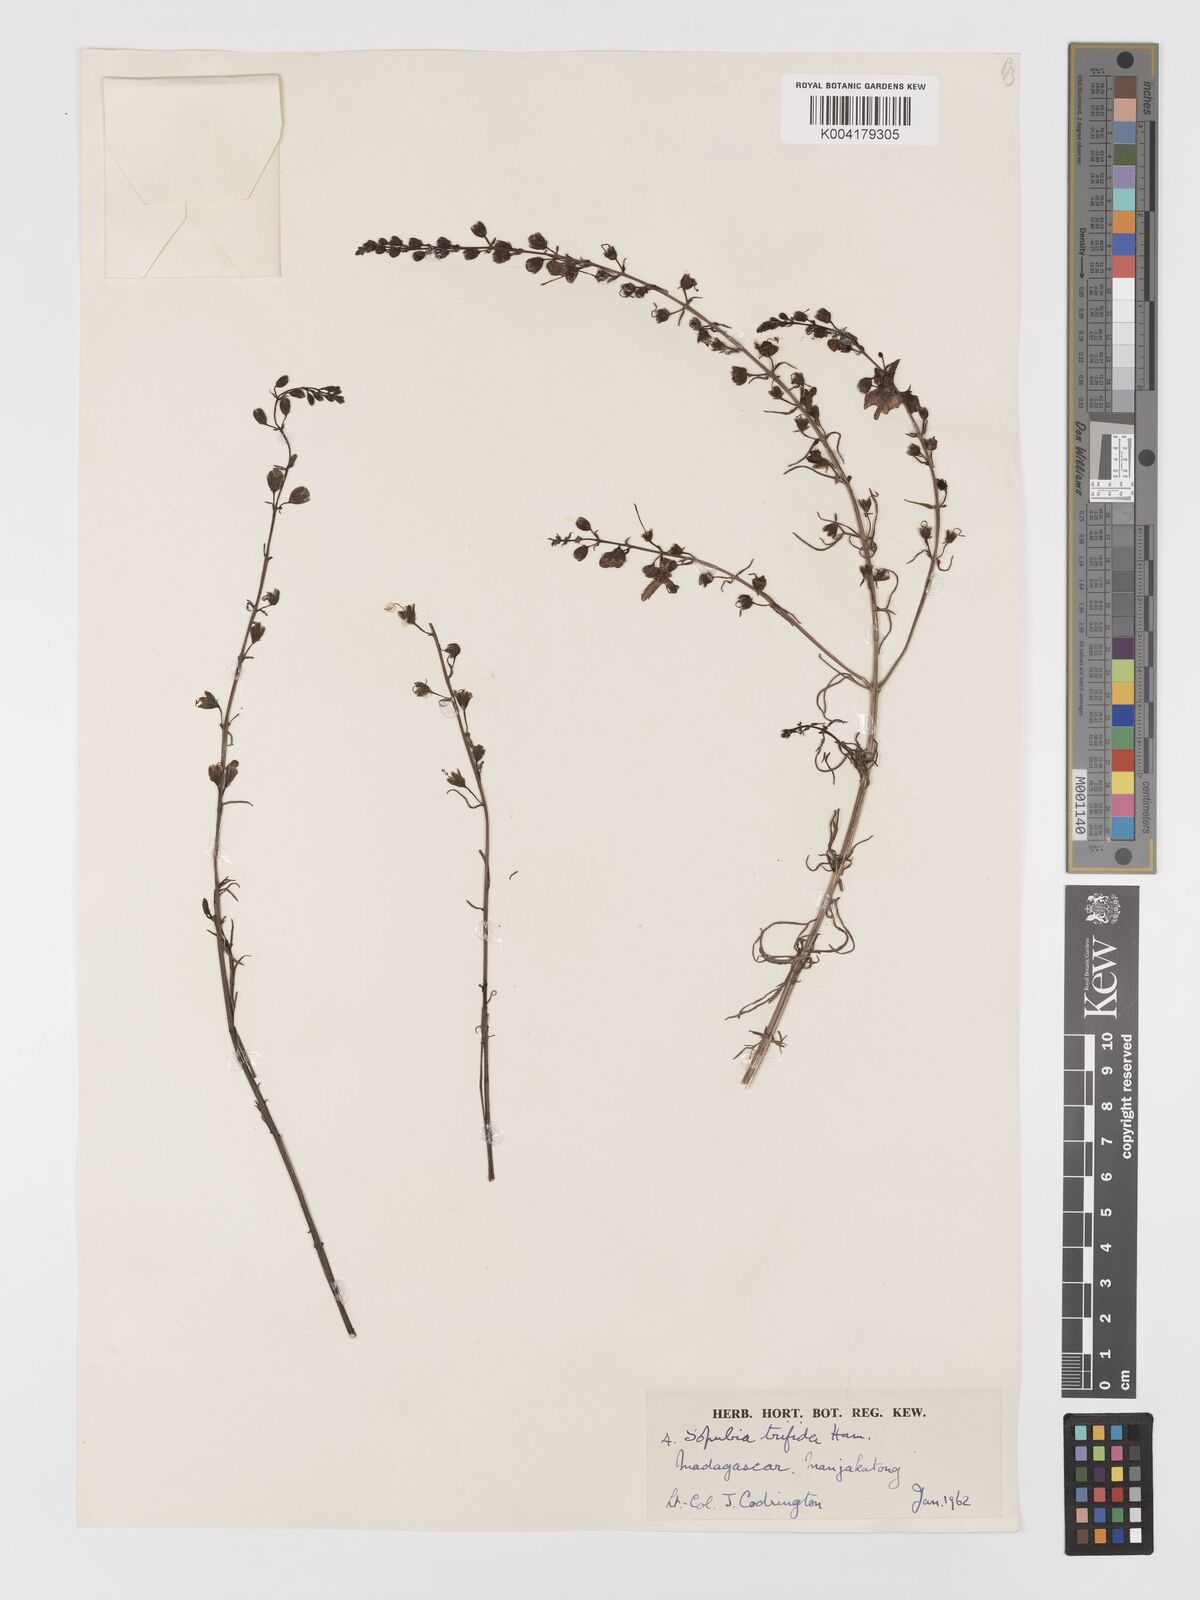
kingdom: Plantae
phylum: Tracheophyta
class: Magnoliopsida
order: Lamiales
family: Orobanchaceae
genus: Sopubia
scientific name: Sopubia trifida
